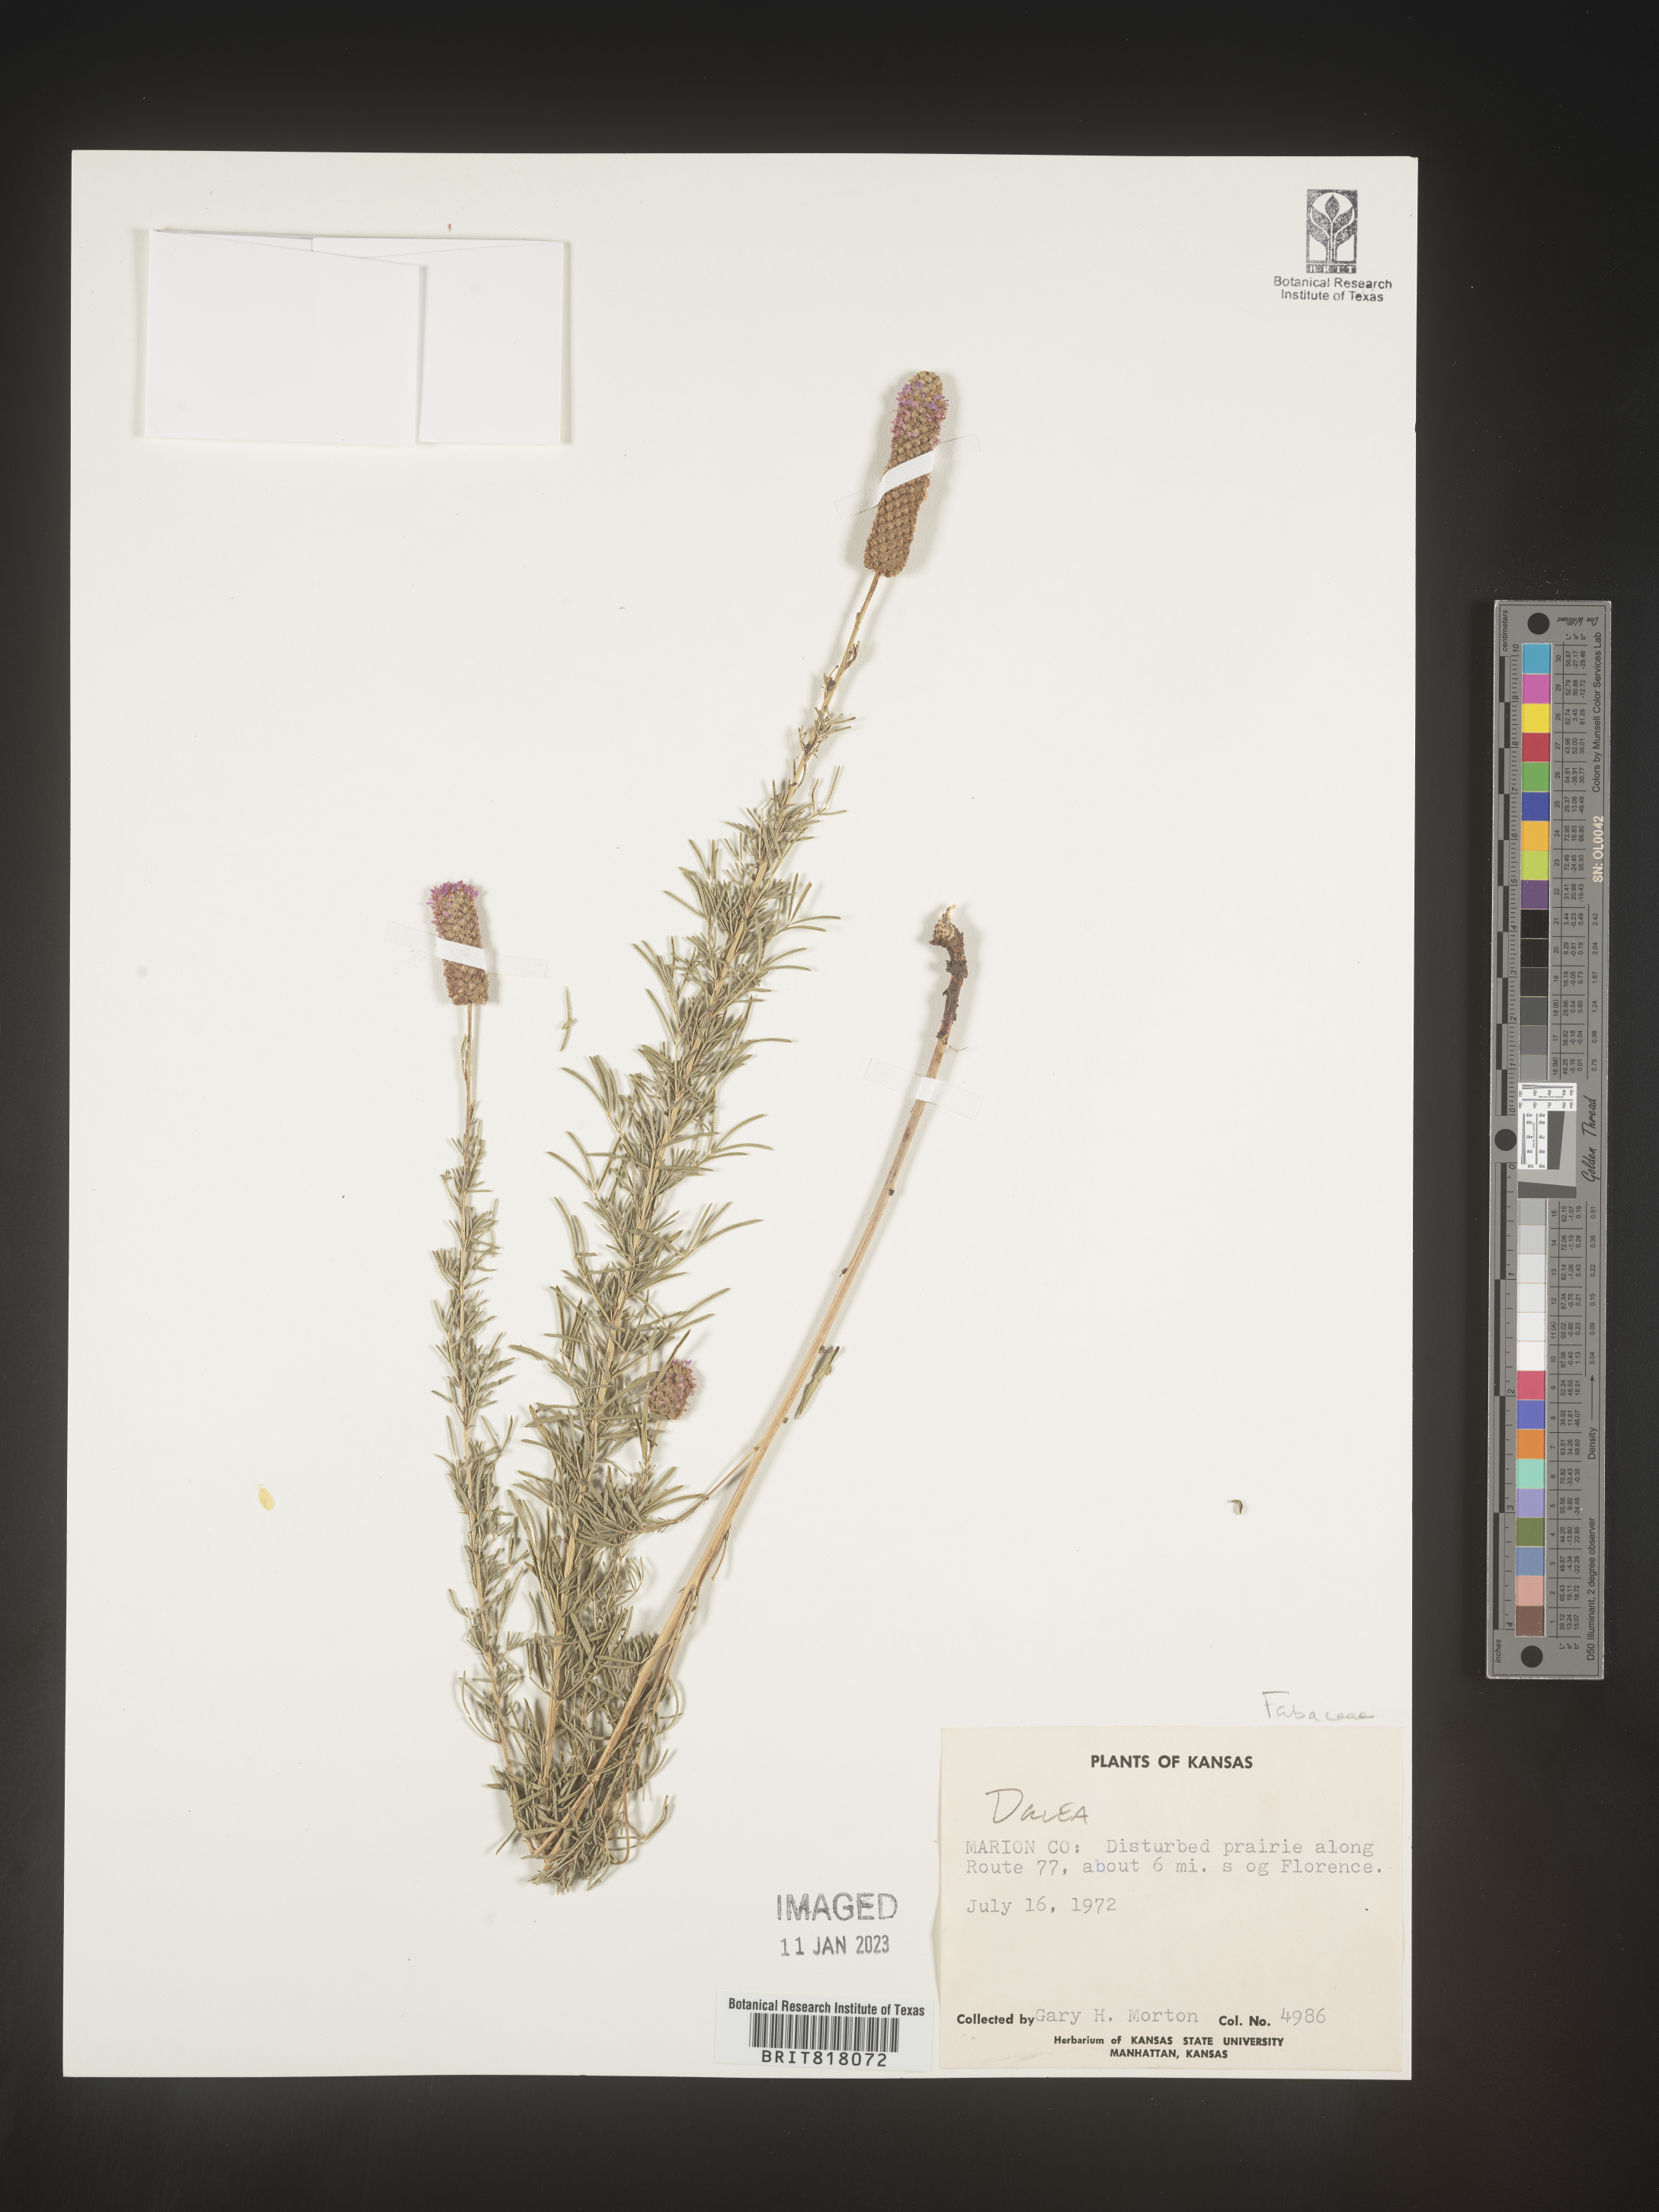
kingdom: Plantae
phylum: Tracheophyta
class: Magnoliopsida
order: Fabales
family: Fabaceae
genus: Dalea
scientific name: Dalea
